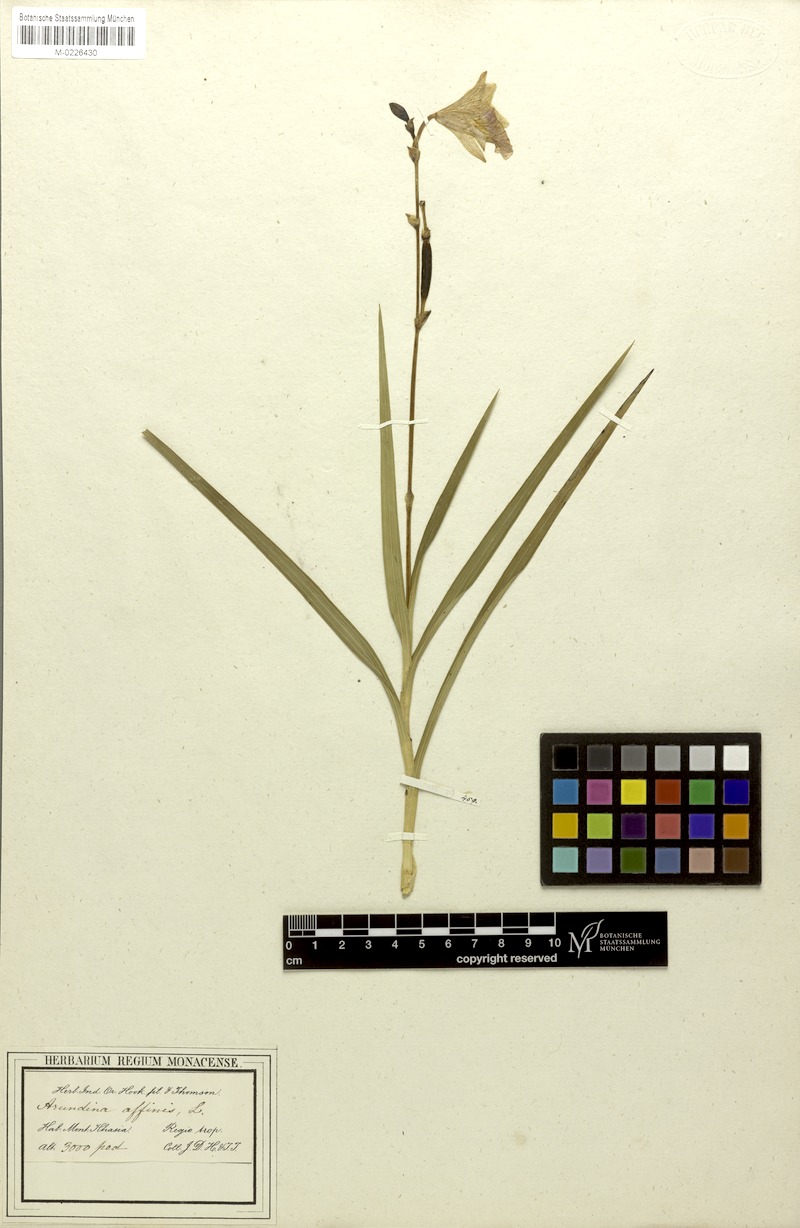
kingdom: Plantae
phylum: Tracheophyta
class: Liliopsida
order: Asparagales
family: Orchidaceae
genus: Arundina
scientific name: Arundina graminifolia
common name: Bamboo orchid
